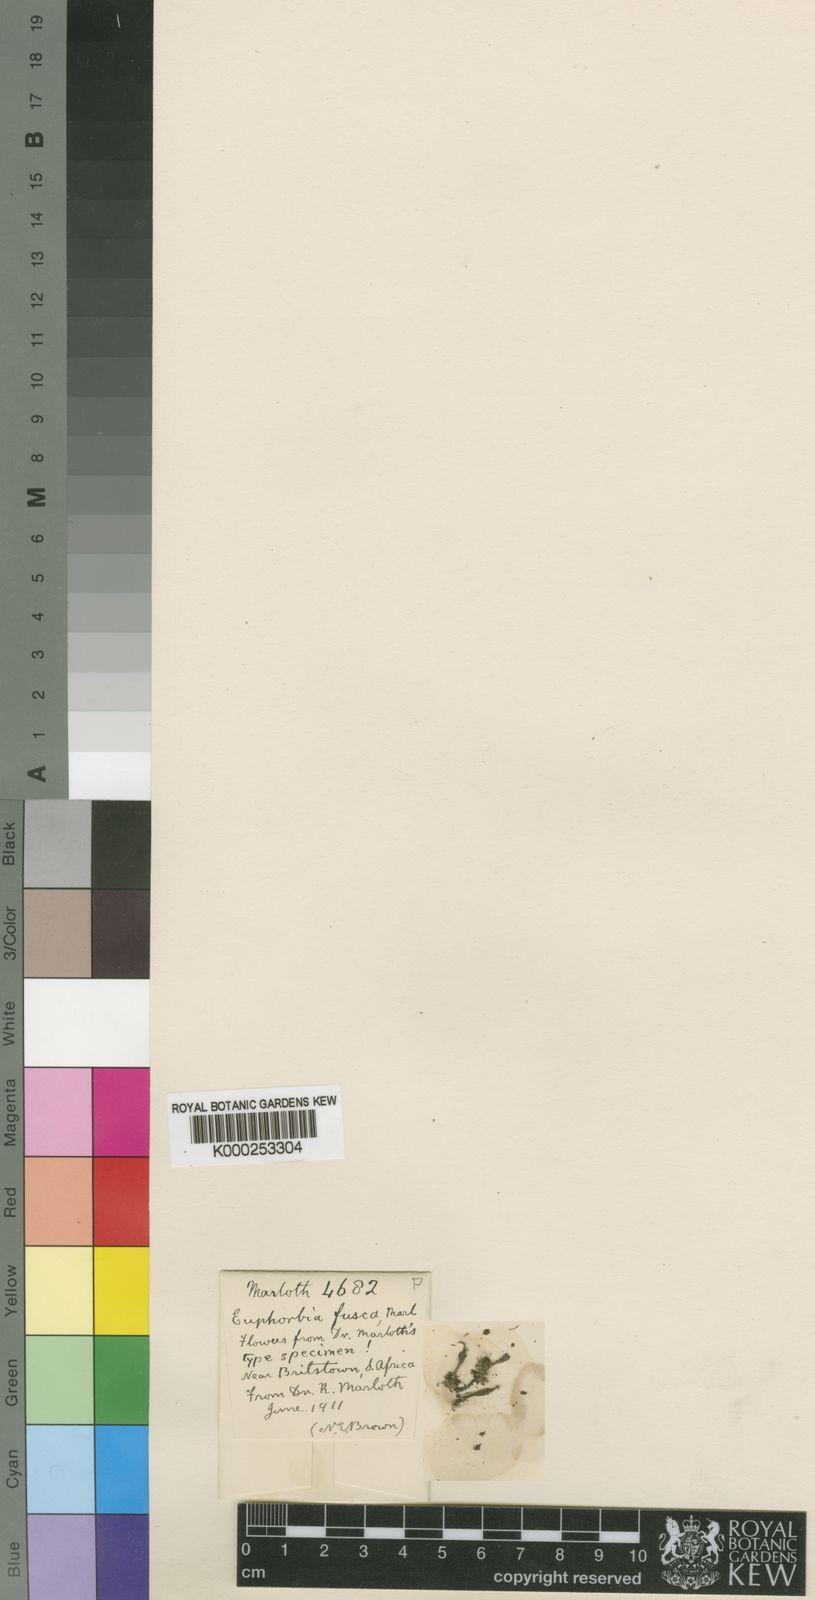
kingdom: Plantae
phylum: Tracheophyta
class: Magnoliopsida
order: Malpighiales
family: Euphorbiaceae
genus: Euphorbia
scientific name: Euphorbia crassipes
